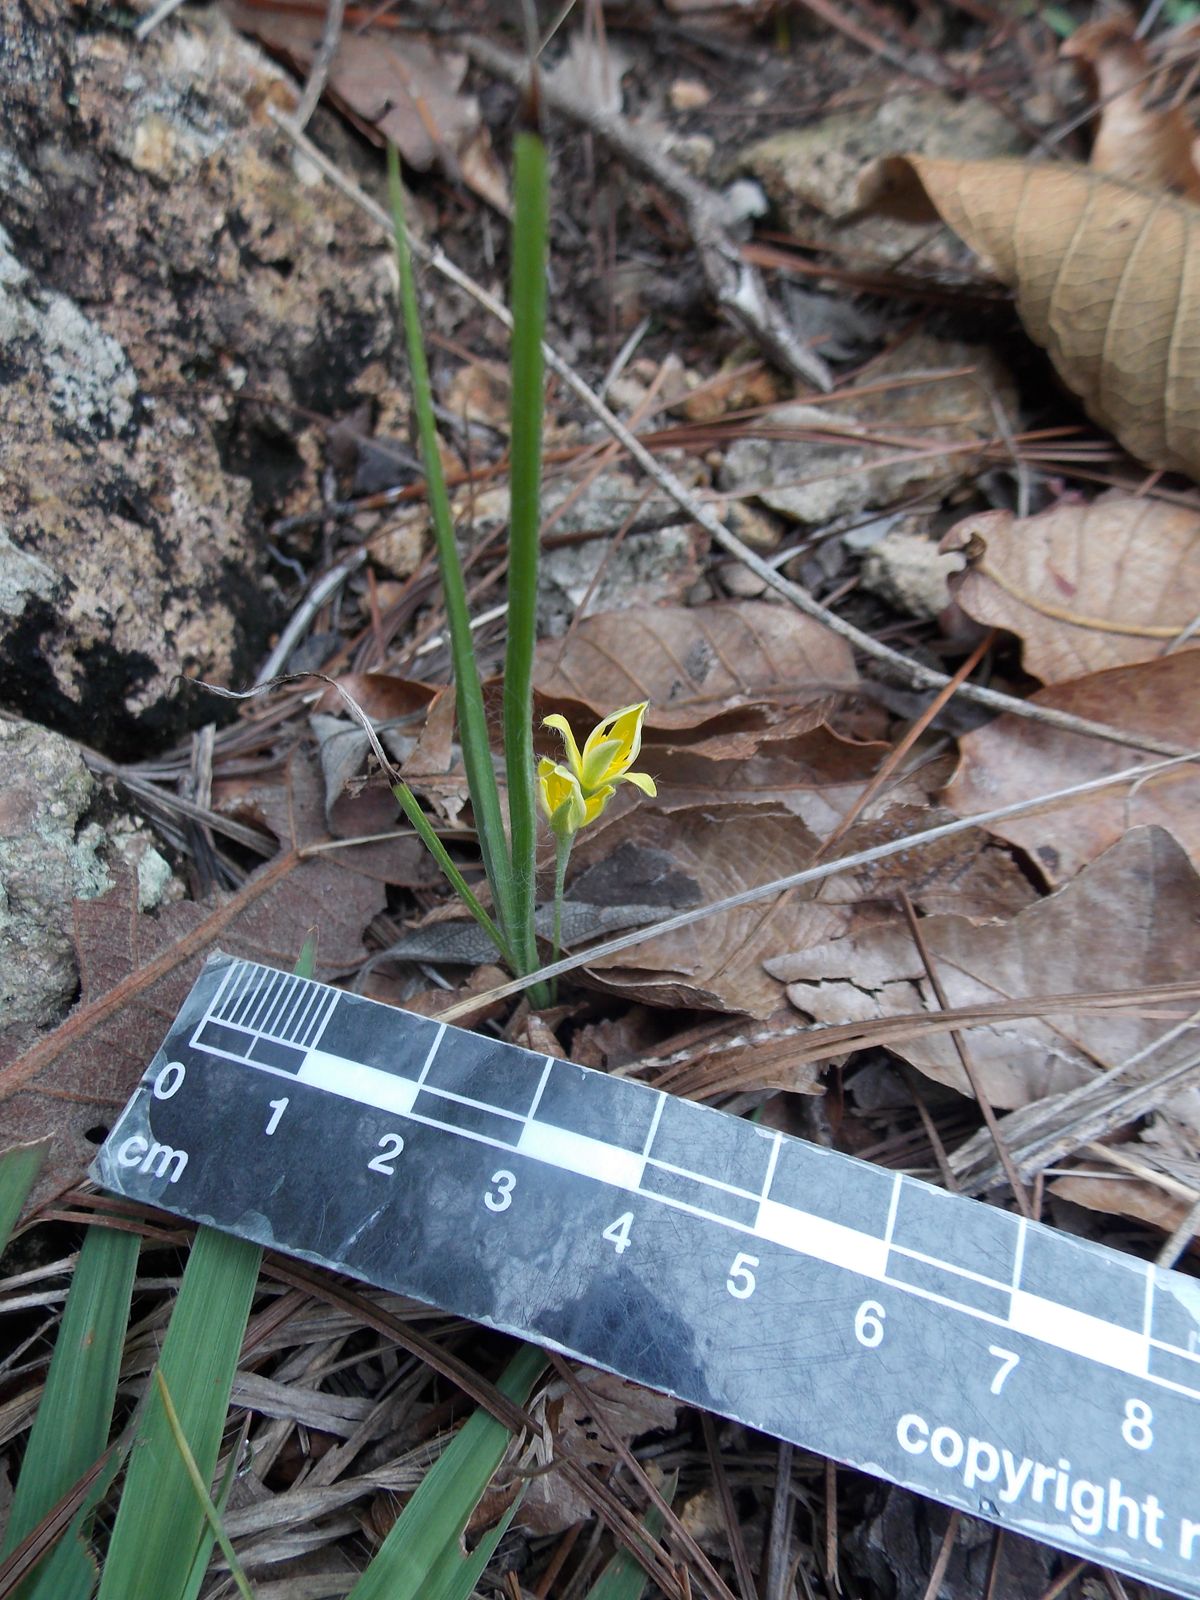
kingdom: Plantae
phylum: Tracheophyta
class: Liliopsida
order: Asparagales
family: Hypoxidaceae
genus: Hypoxis
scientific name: Hypoxis decumbens
